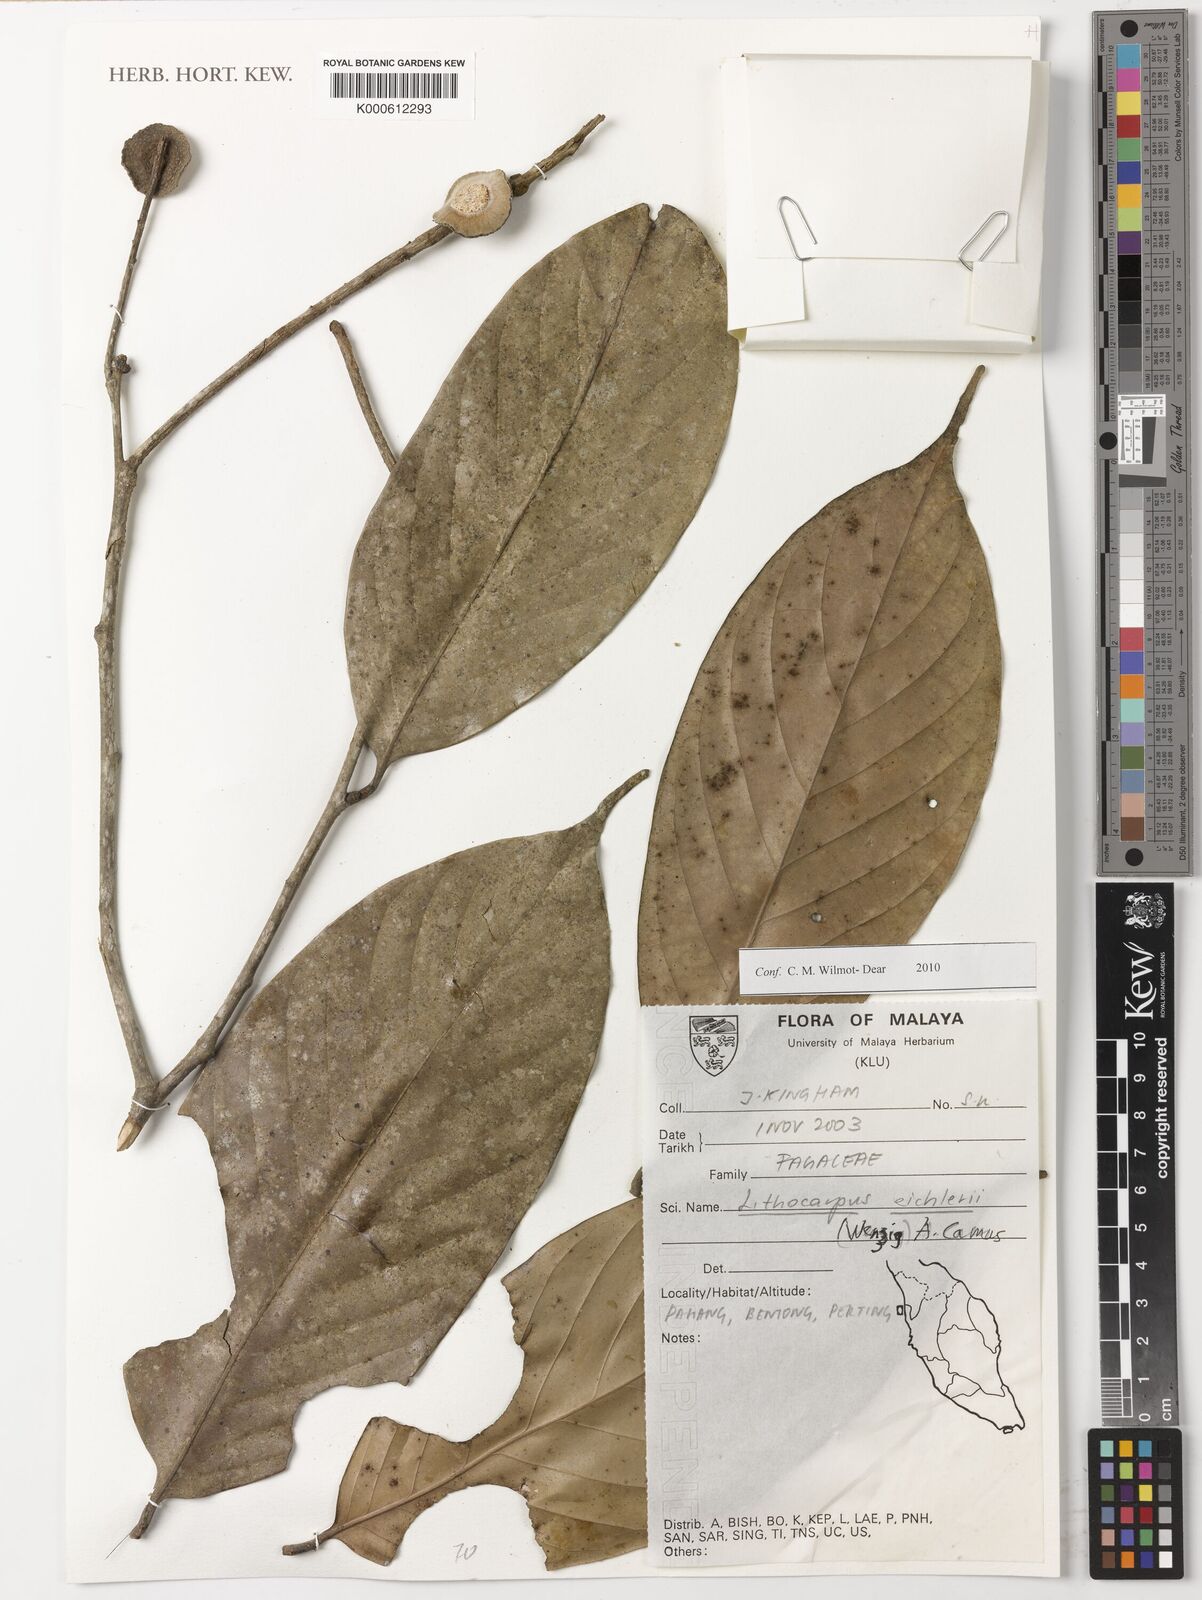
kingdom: Plantae
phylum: Tracheophyta
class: Magnoliopsida
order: Fagales
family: Fagaceae
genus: Lithocarpus
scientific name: Lithocarpus eichleri
